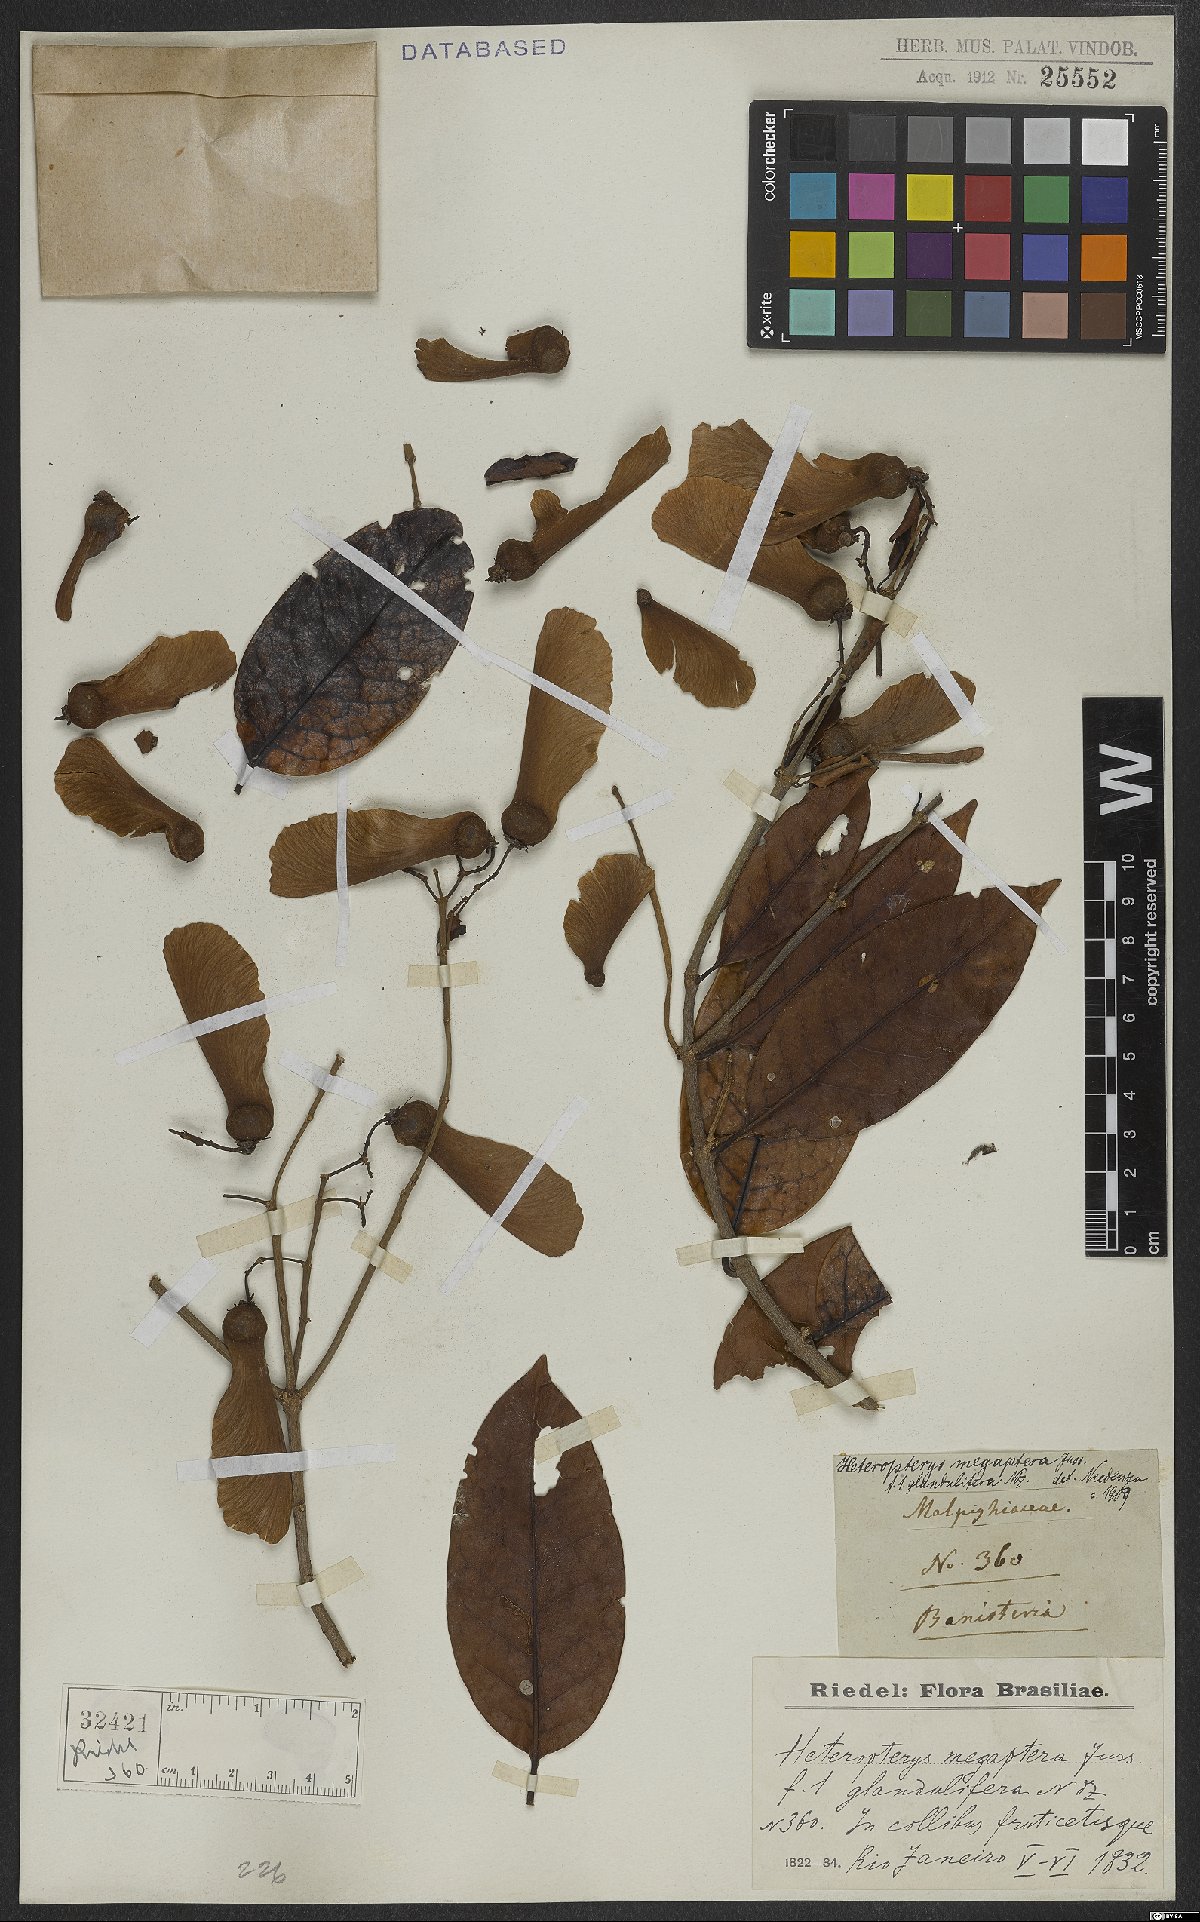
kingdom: Plantae
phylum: Tracheophyta
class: Magnoliopsida
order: Malpighiales
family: Malpighiaceae
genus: Heteropterys
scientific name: Heteropterys megaptera
